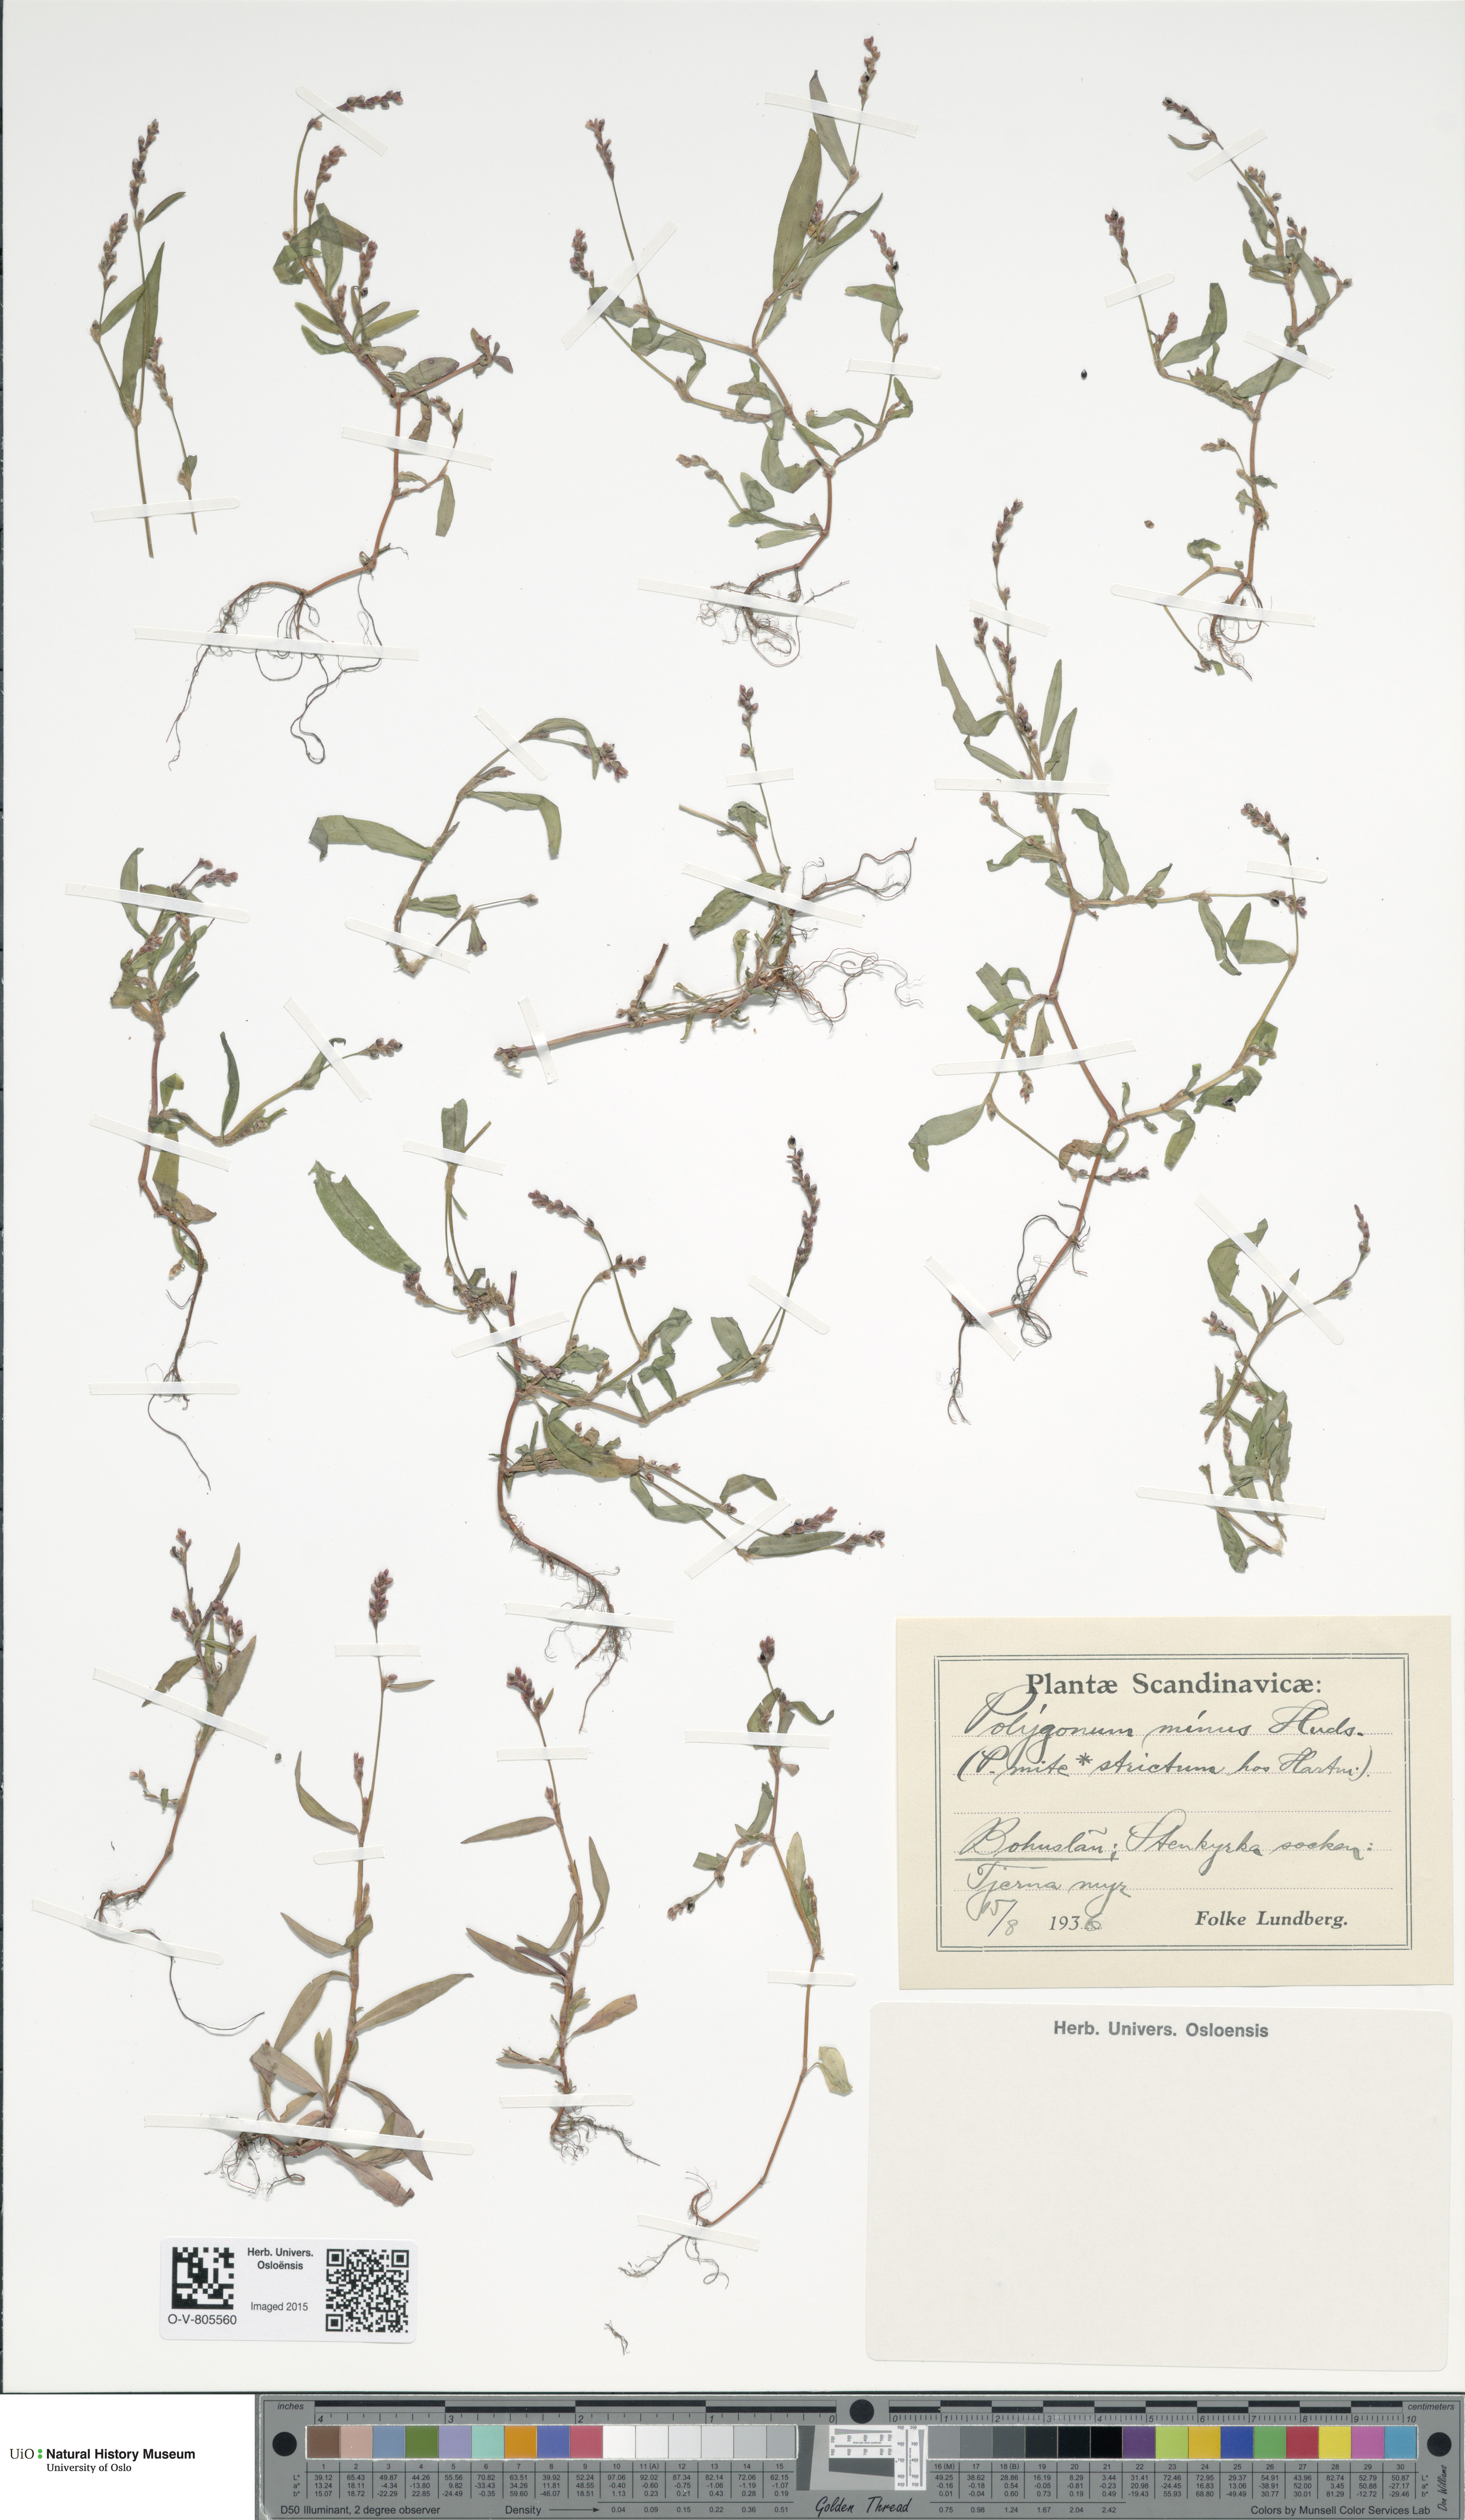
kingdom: Plantae
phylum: Tracheophyta
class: Magnoliopsida
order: Caryophyllales
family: Polygonaceae
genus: Persicaria
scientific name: Persicaria minor
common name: Small water-pepper
